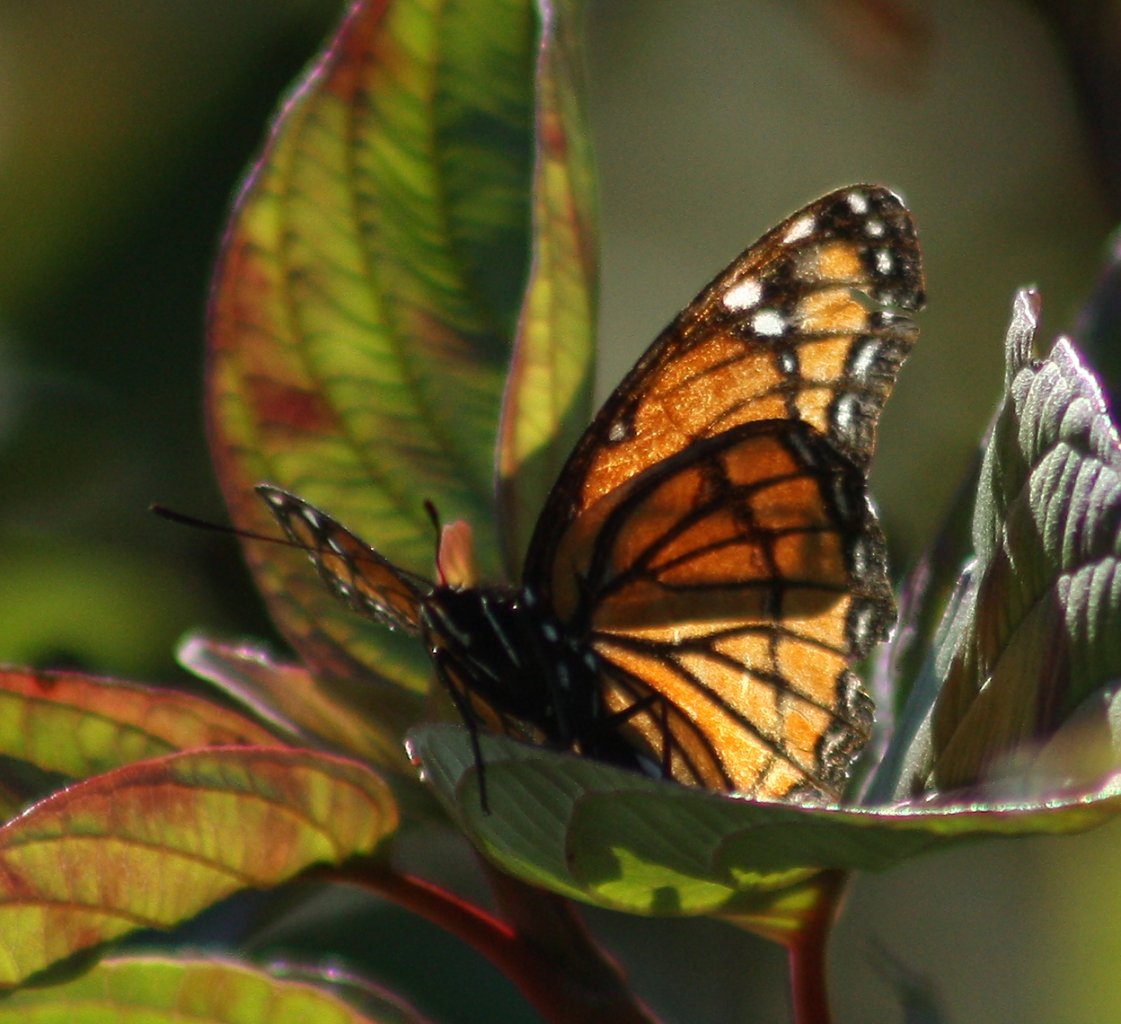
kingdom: Animalia
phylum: Arthropoda
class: Insecta
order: Lepidoptera
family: Nymphalidae
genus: Limenitis
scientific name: Limenitis archippus
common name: Viceroy
